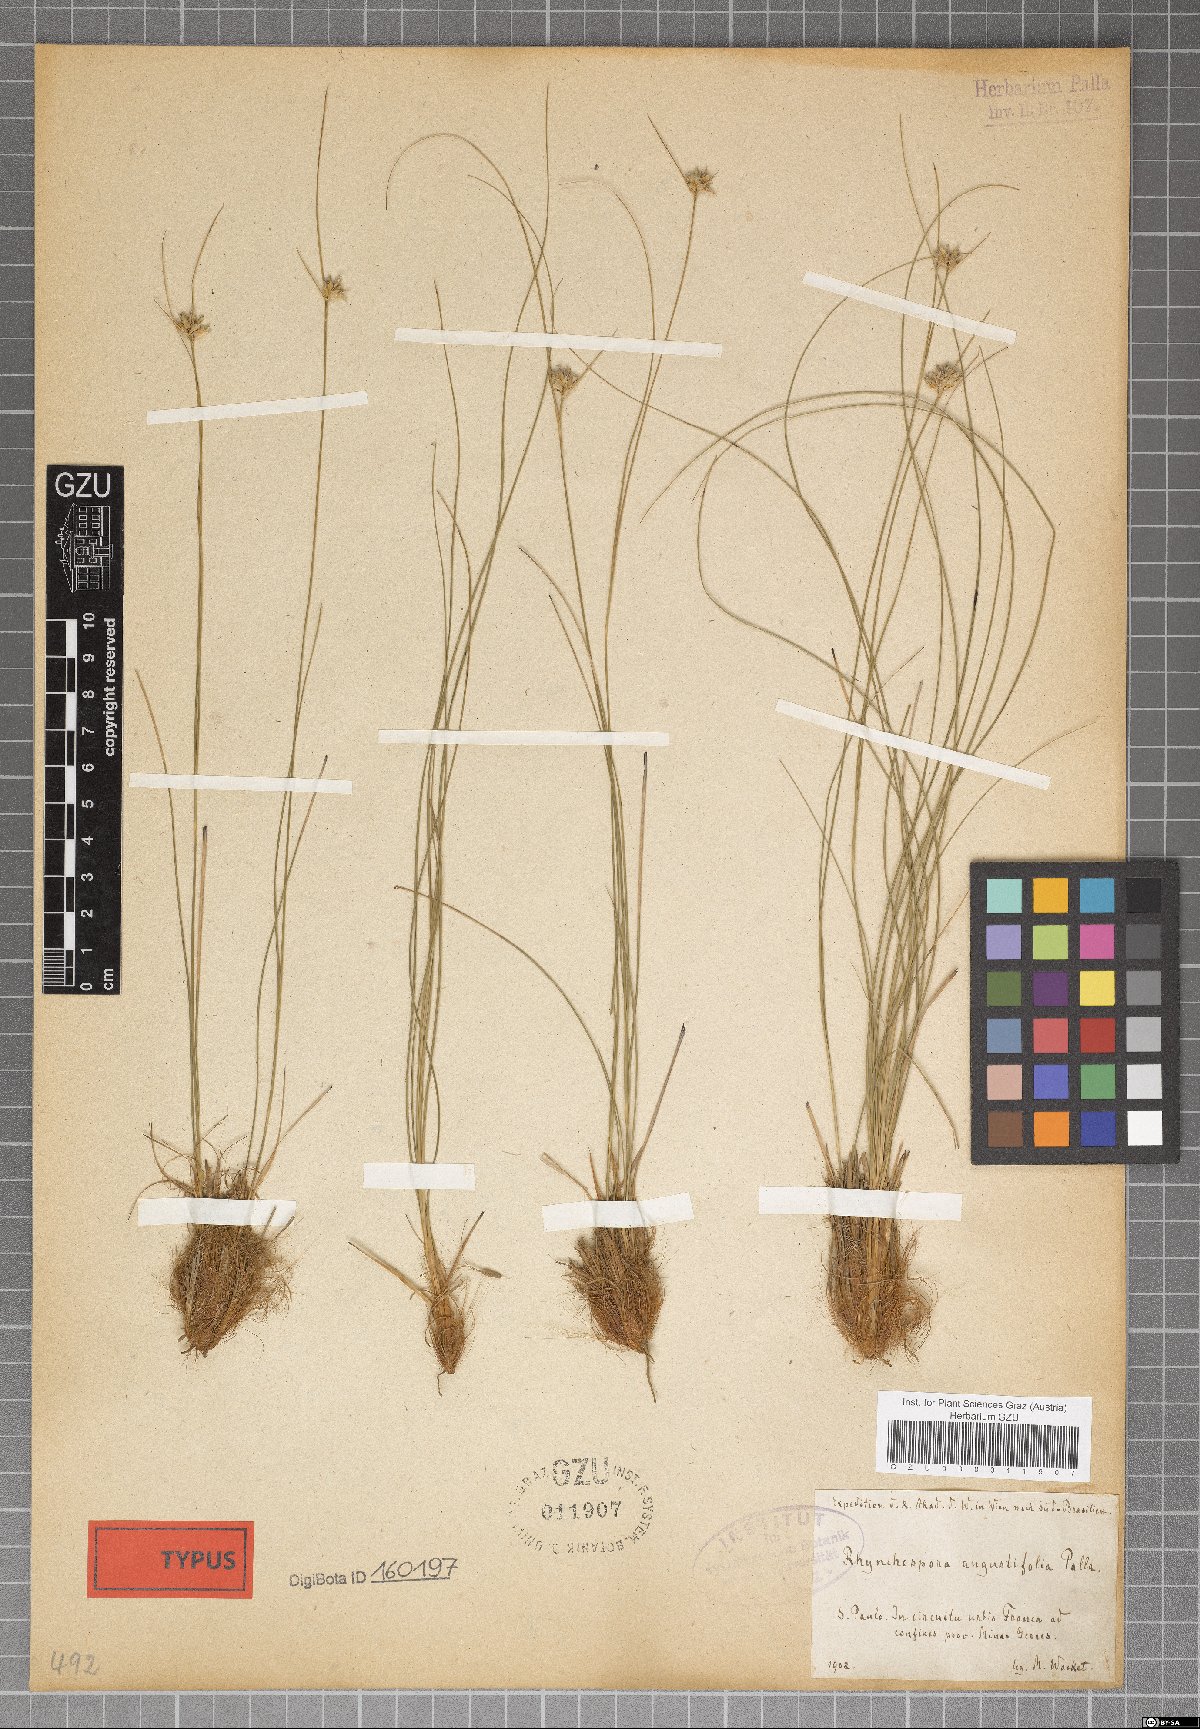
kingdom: Plantae
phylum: Tracheophyta
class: Liliopsida
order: Poales
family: Cyperaceae
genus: Rhynchospora
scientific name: Rhynchospora angustifolia
